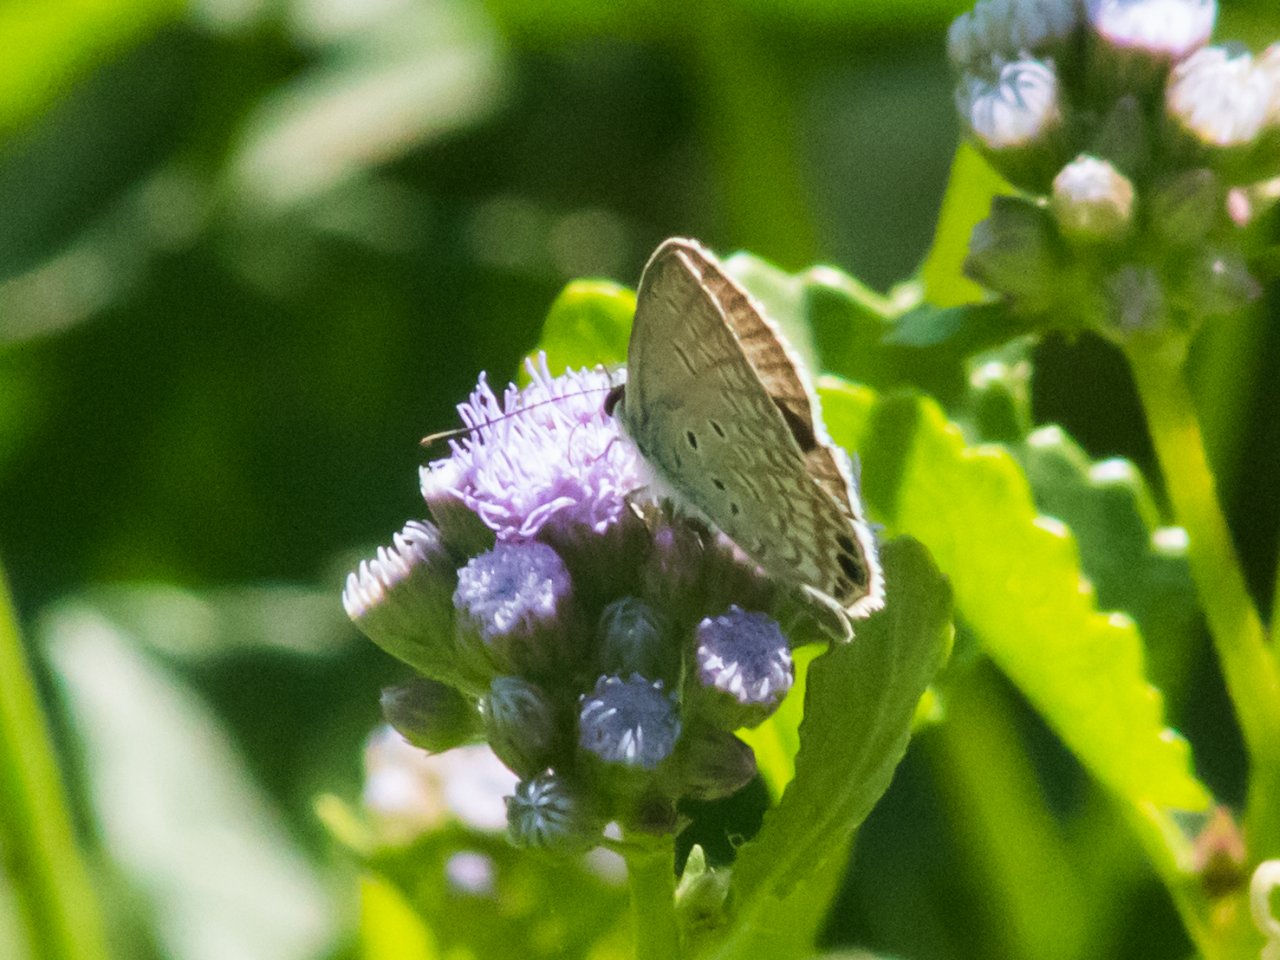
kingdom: Animalia
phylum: Arthropoda
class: Insecta
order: Lepidoptera
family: Lycaenidae
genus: Hemiargus
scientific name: Hemiargus ceraunus
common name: Ceraunus Blue
